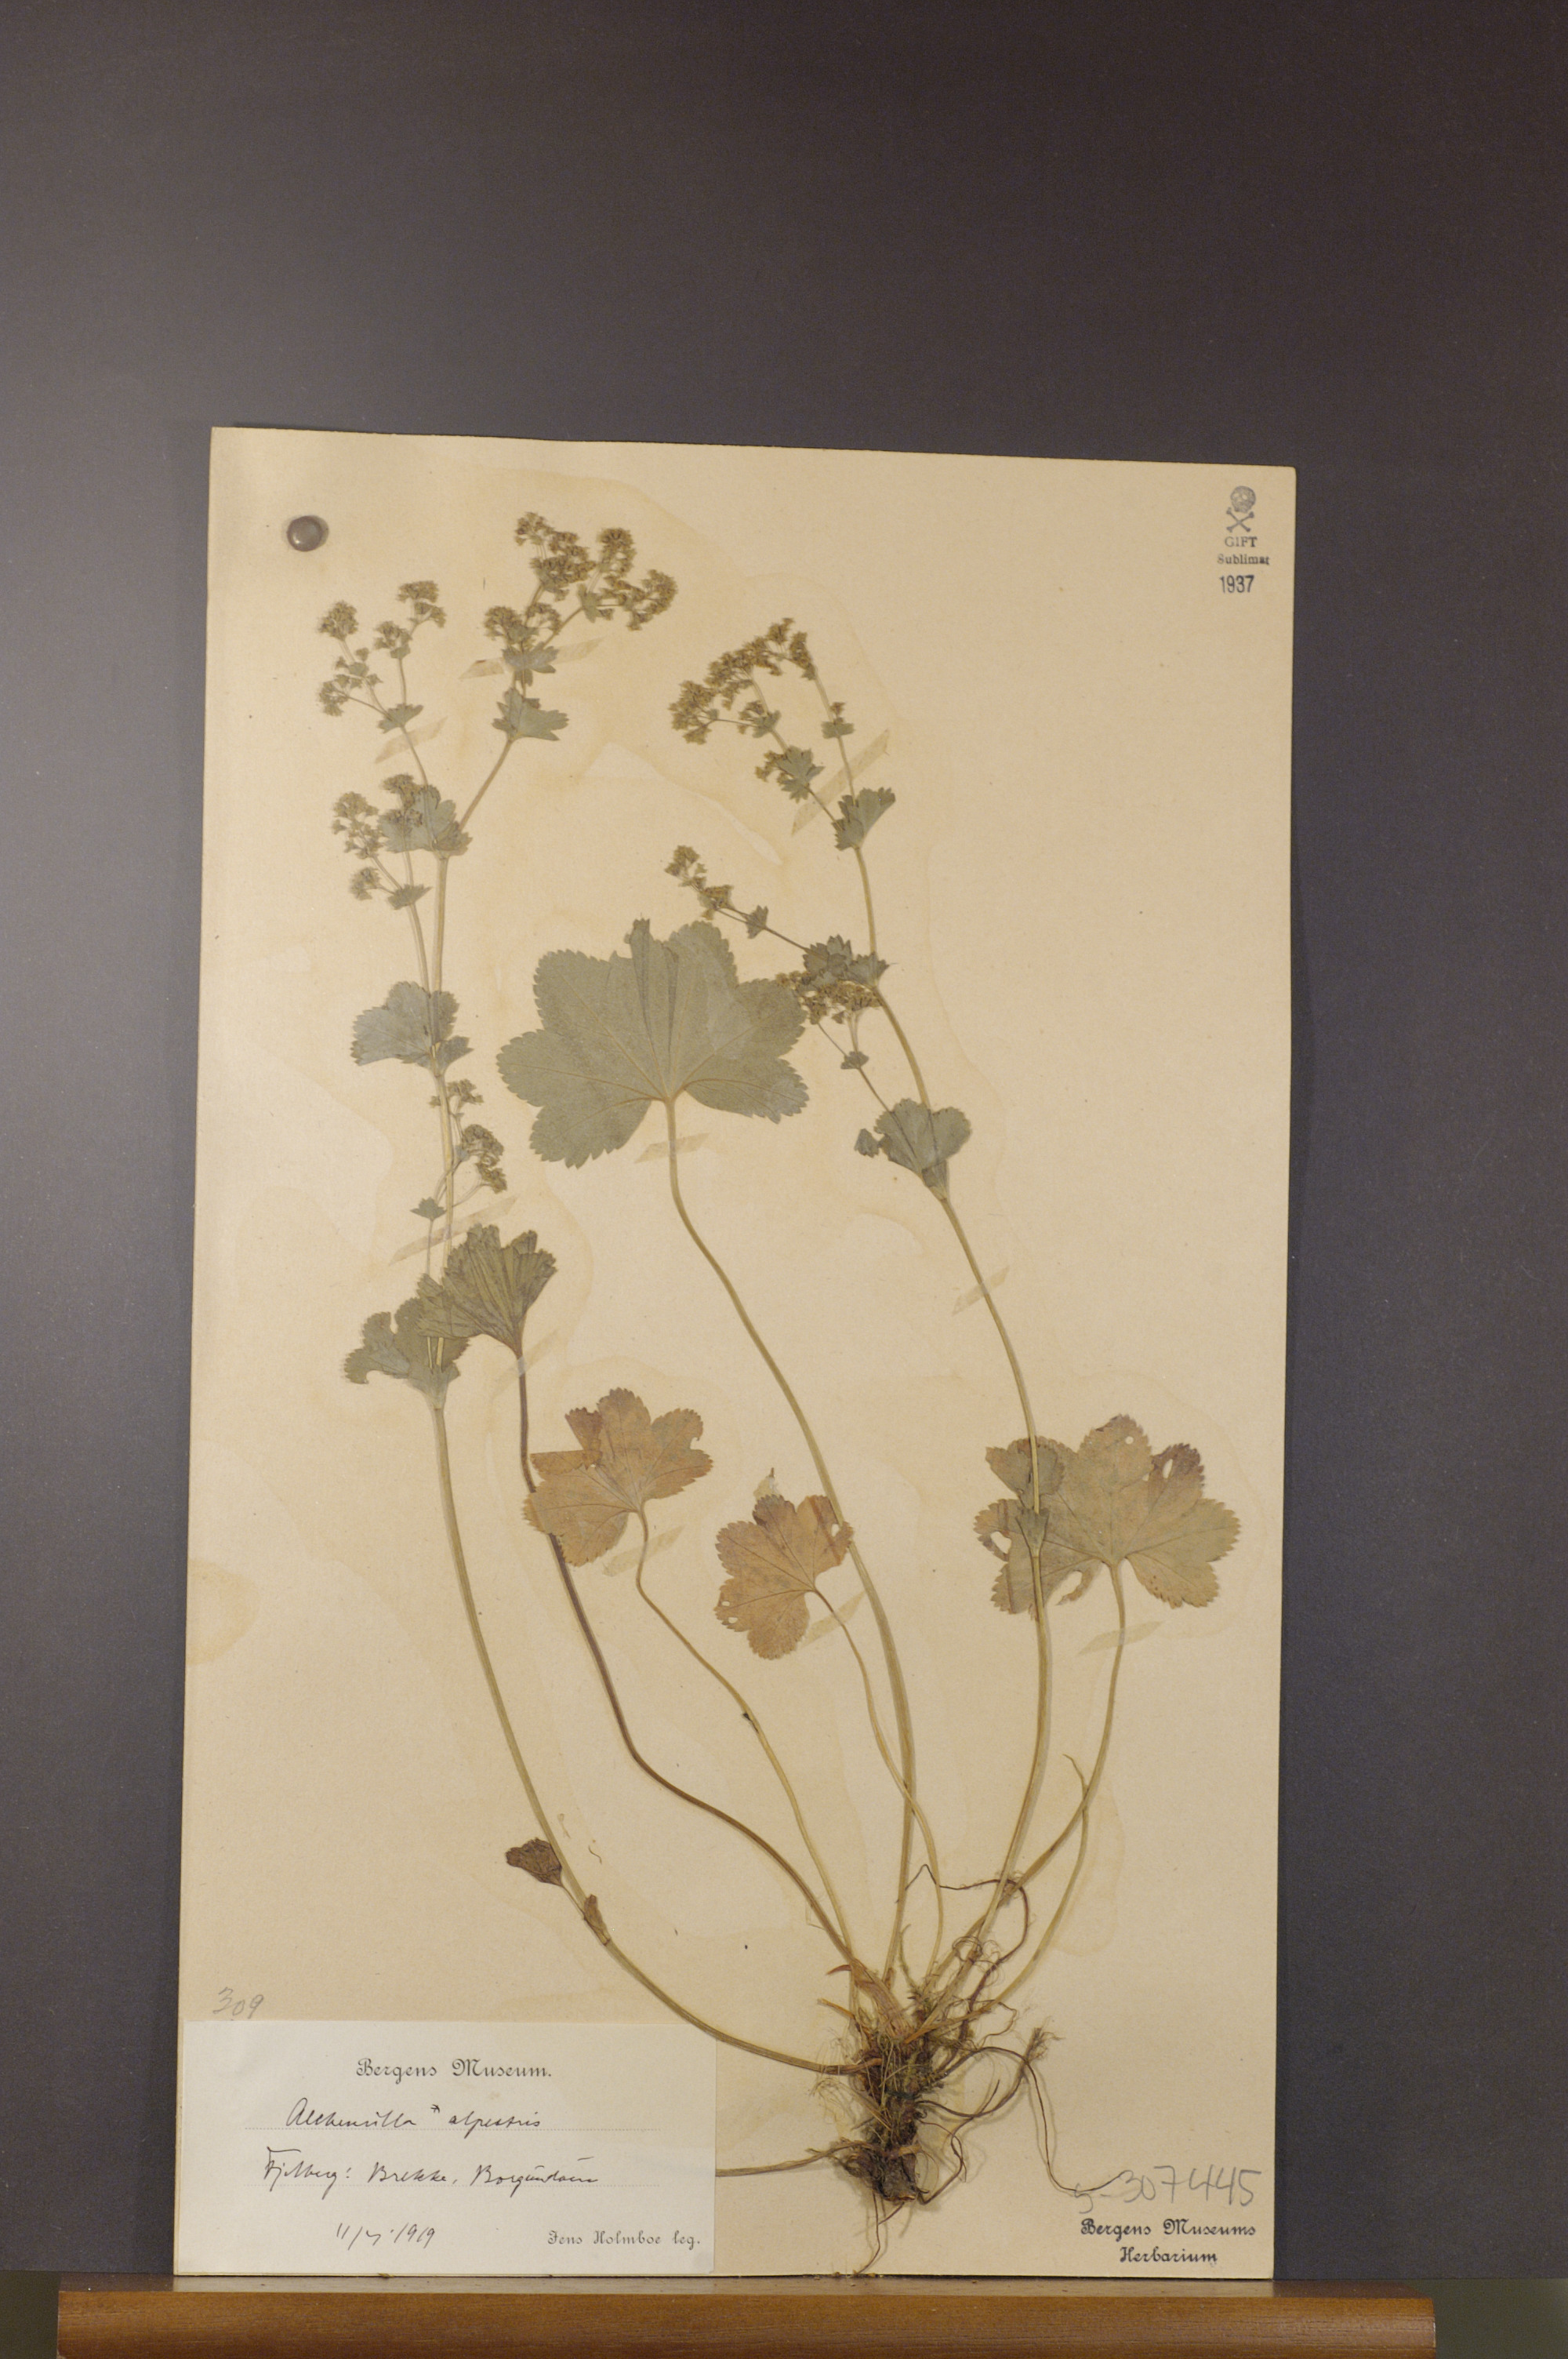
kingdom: Plantae
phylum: Tracheophyta
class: Magnoliopsida
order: Rosales
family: Rosaceae
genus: Alchemilla
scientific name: Alchemilla glabra
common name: Smooth lady's-mantle
